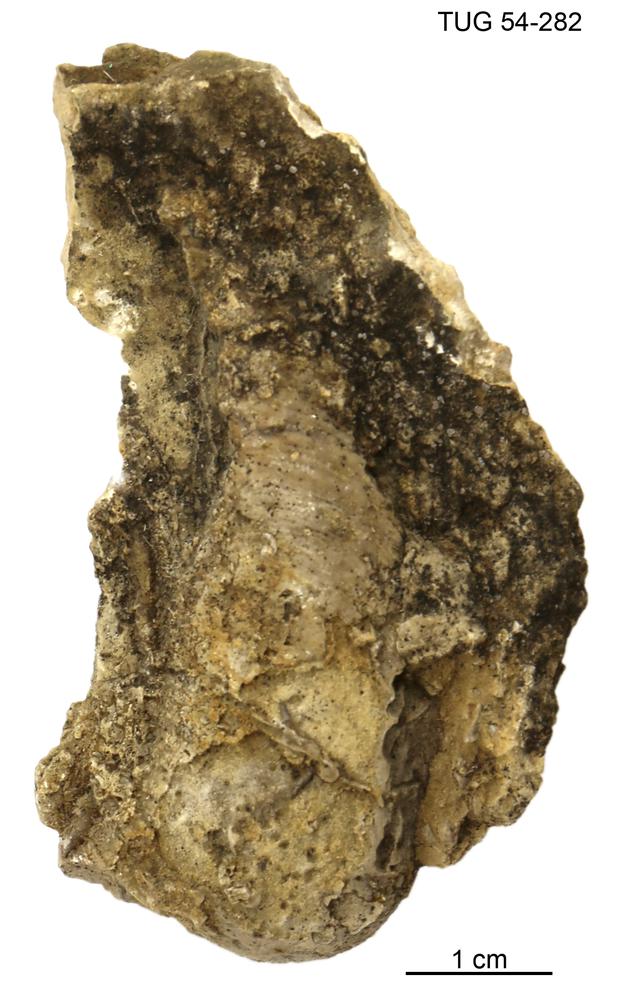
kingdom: Animalia
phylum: Mollusca
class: Cephalopoda
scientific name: Cephalopoda
